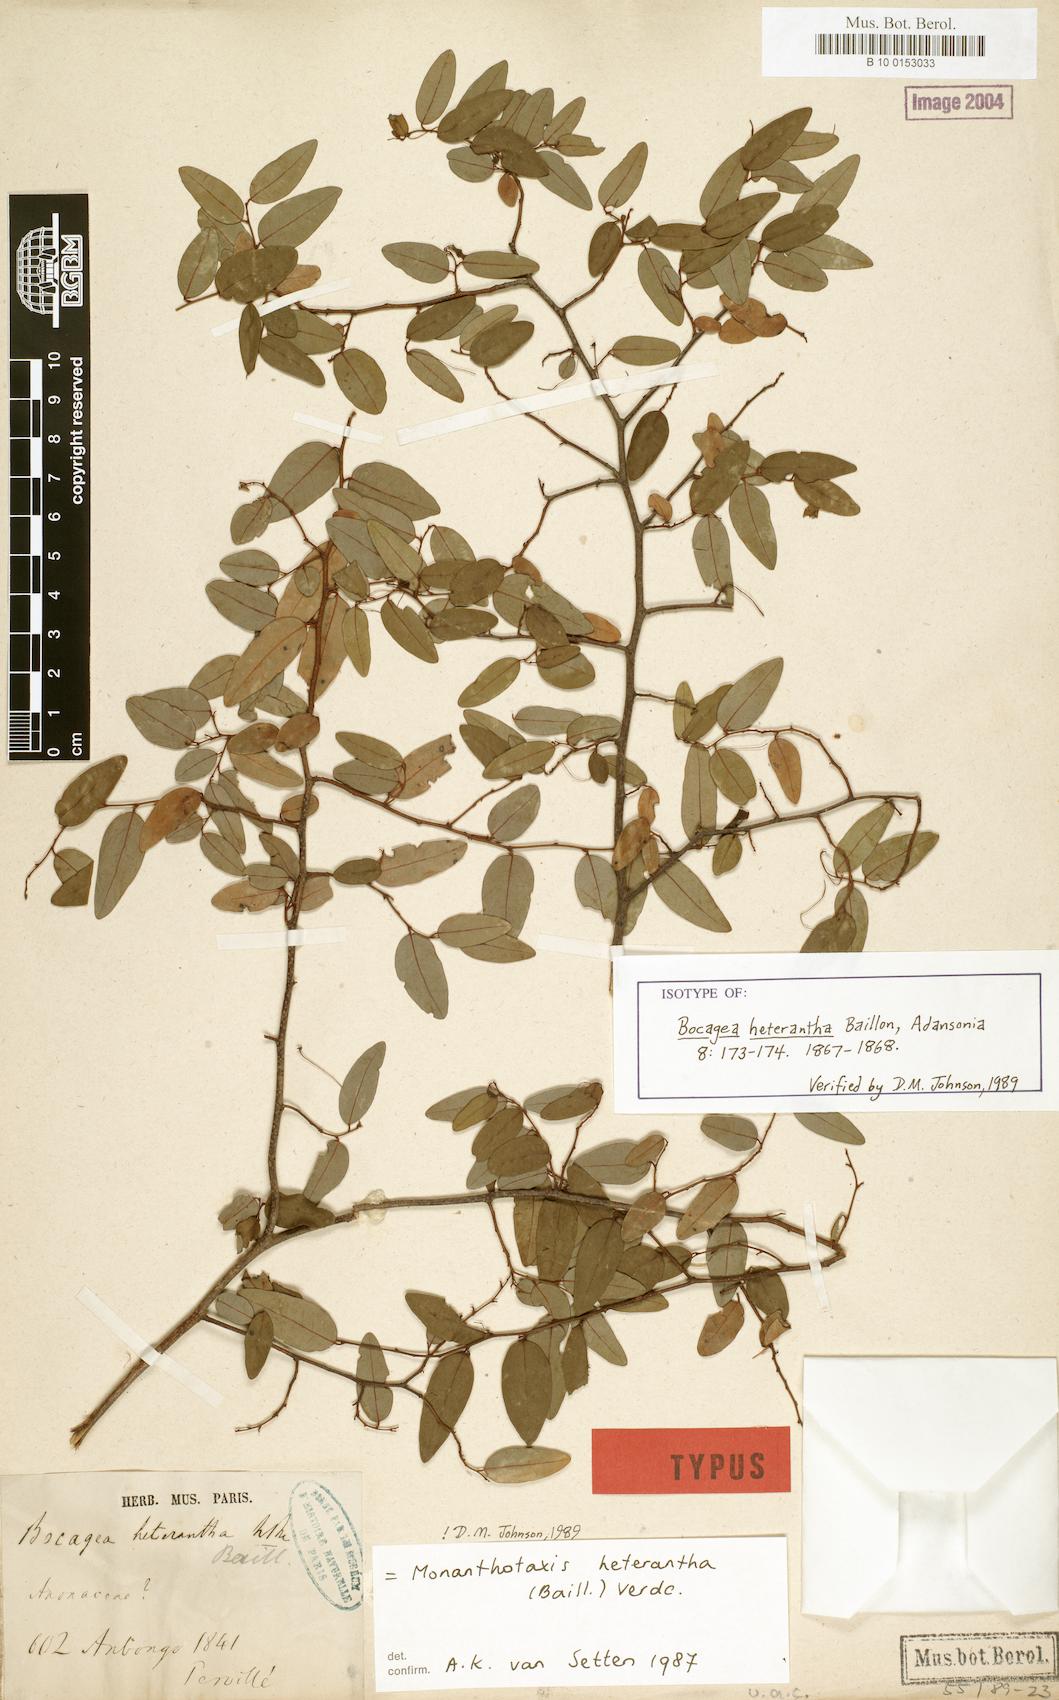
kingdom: Plantae
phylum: Tracheophyta
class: Magnoliopsida
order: Magnoliales
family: Annonaceae
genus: Monanthotaxis
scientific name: Monanthotaxis heterantha
